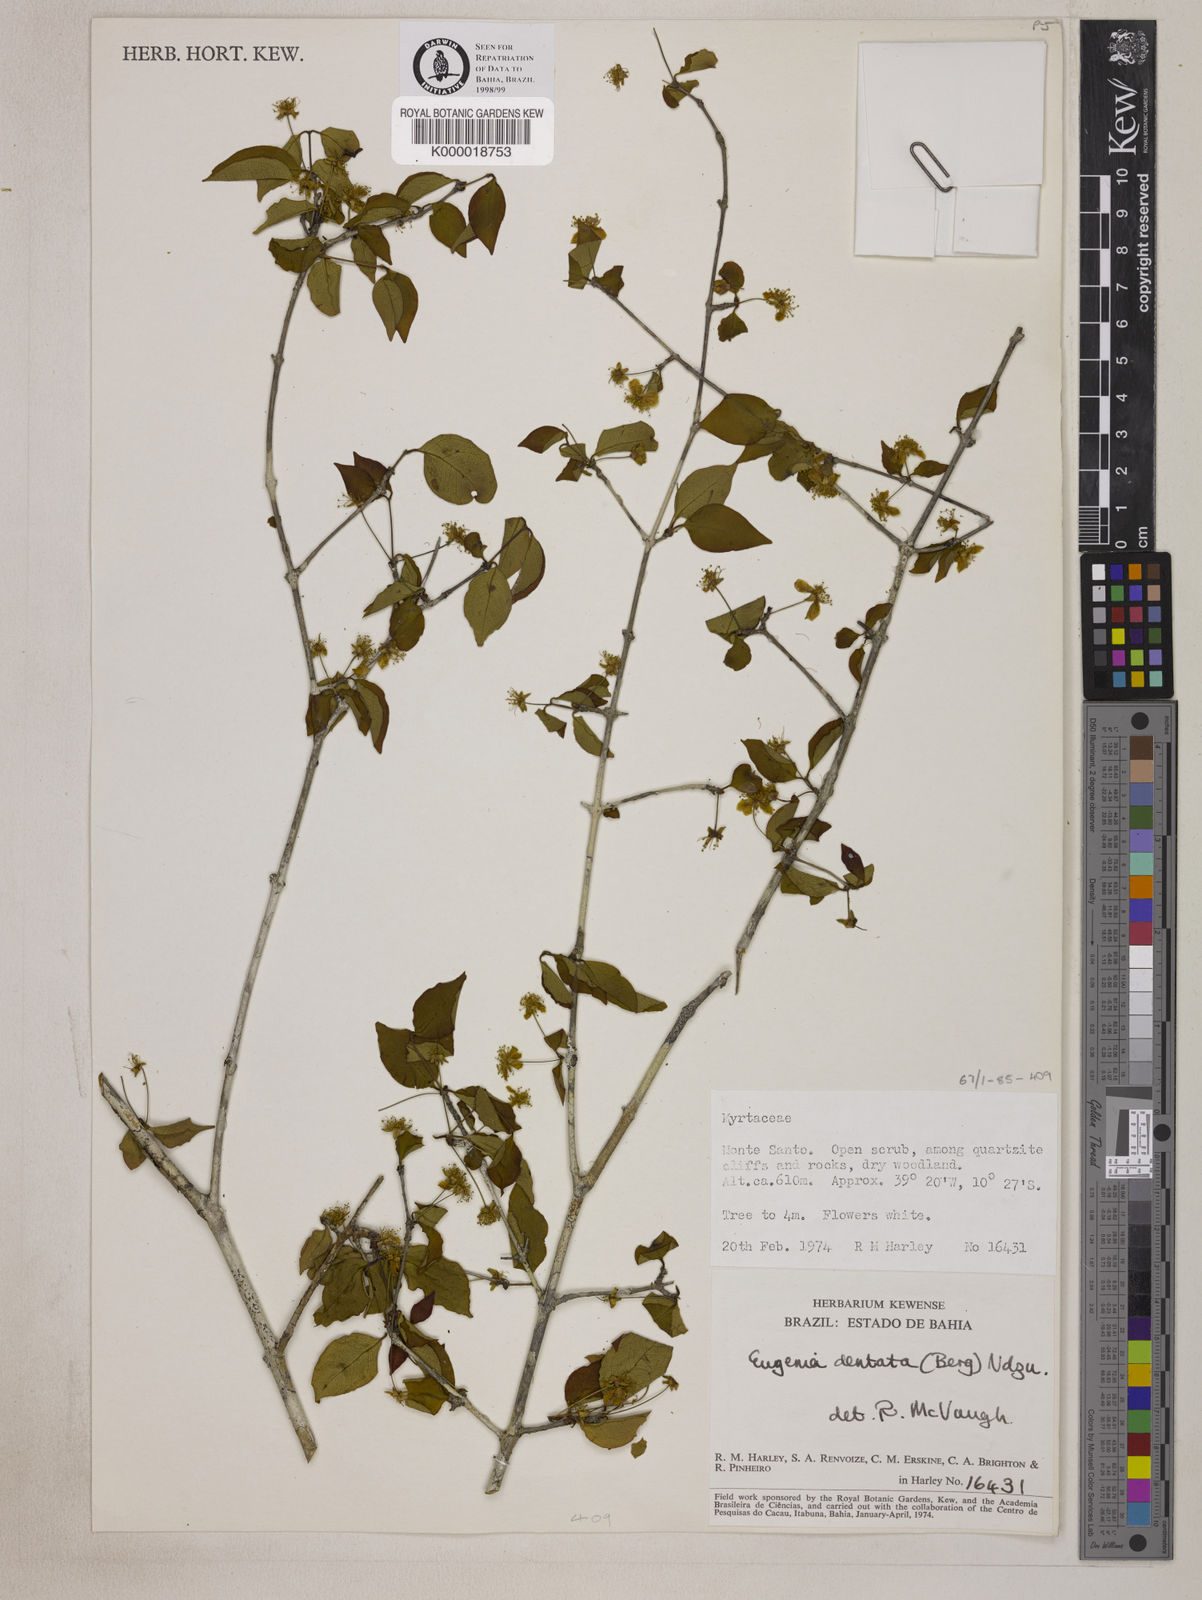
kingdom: Plantae
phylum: Tracheophyta
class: Magnoliopsida
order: Myrtales
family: Myrtaceae
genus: Eugenia
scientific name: Eugenia
